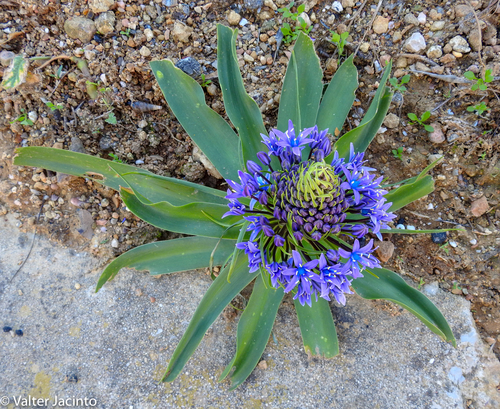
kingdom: Plantae
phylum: Tracheophyta
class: Liliopsida
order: Asparagales
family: Asparagaceae
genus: Scilla
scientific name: Scilla peruviana
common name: Portuguese squill
